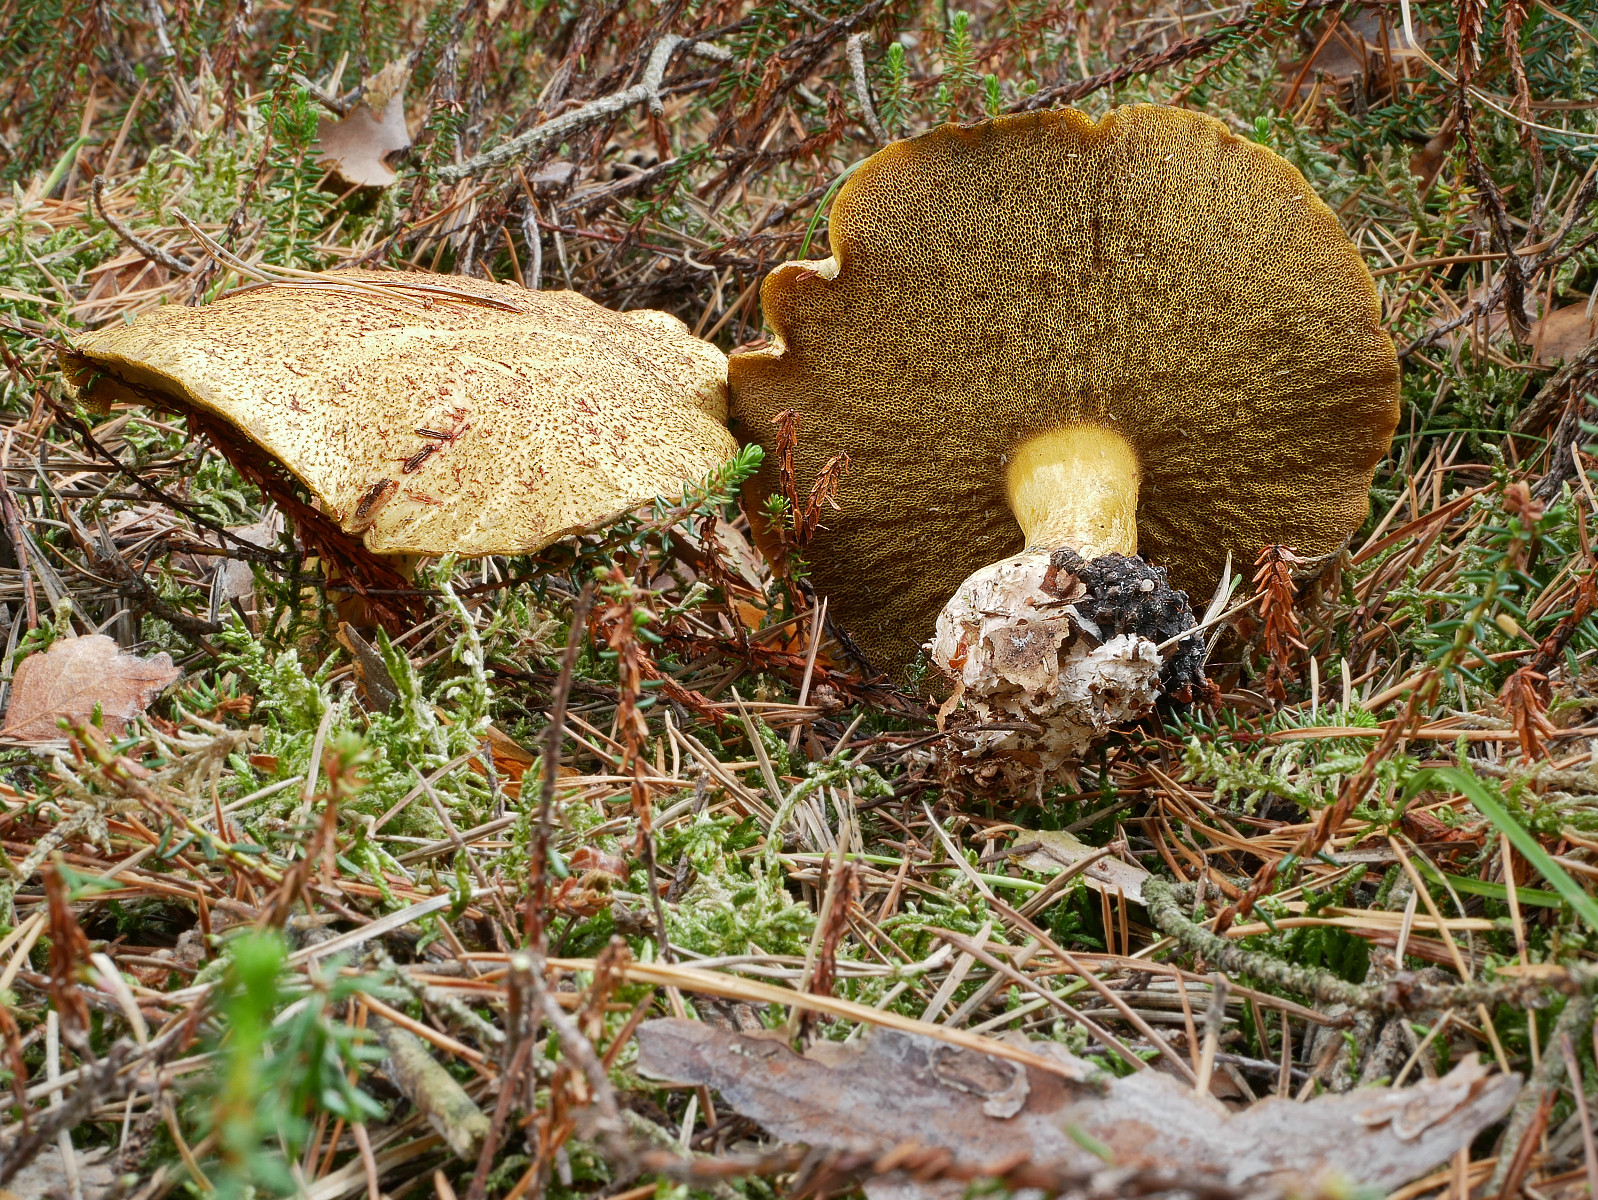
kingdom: Fungi
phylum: Basidiomycota
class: Agaricomycetes
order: Boletales
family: Suillaceae
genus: Suillus
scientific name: Suillus variegatus
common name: broget slimrørhat
